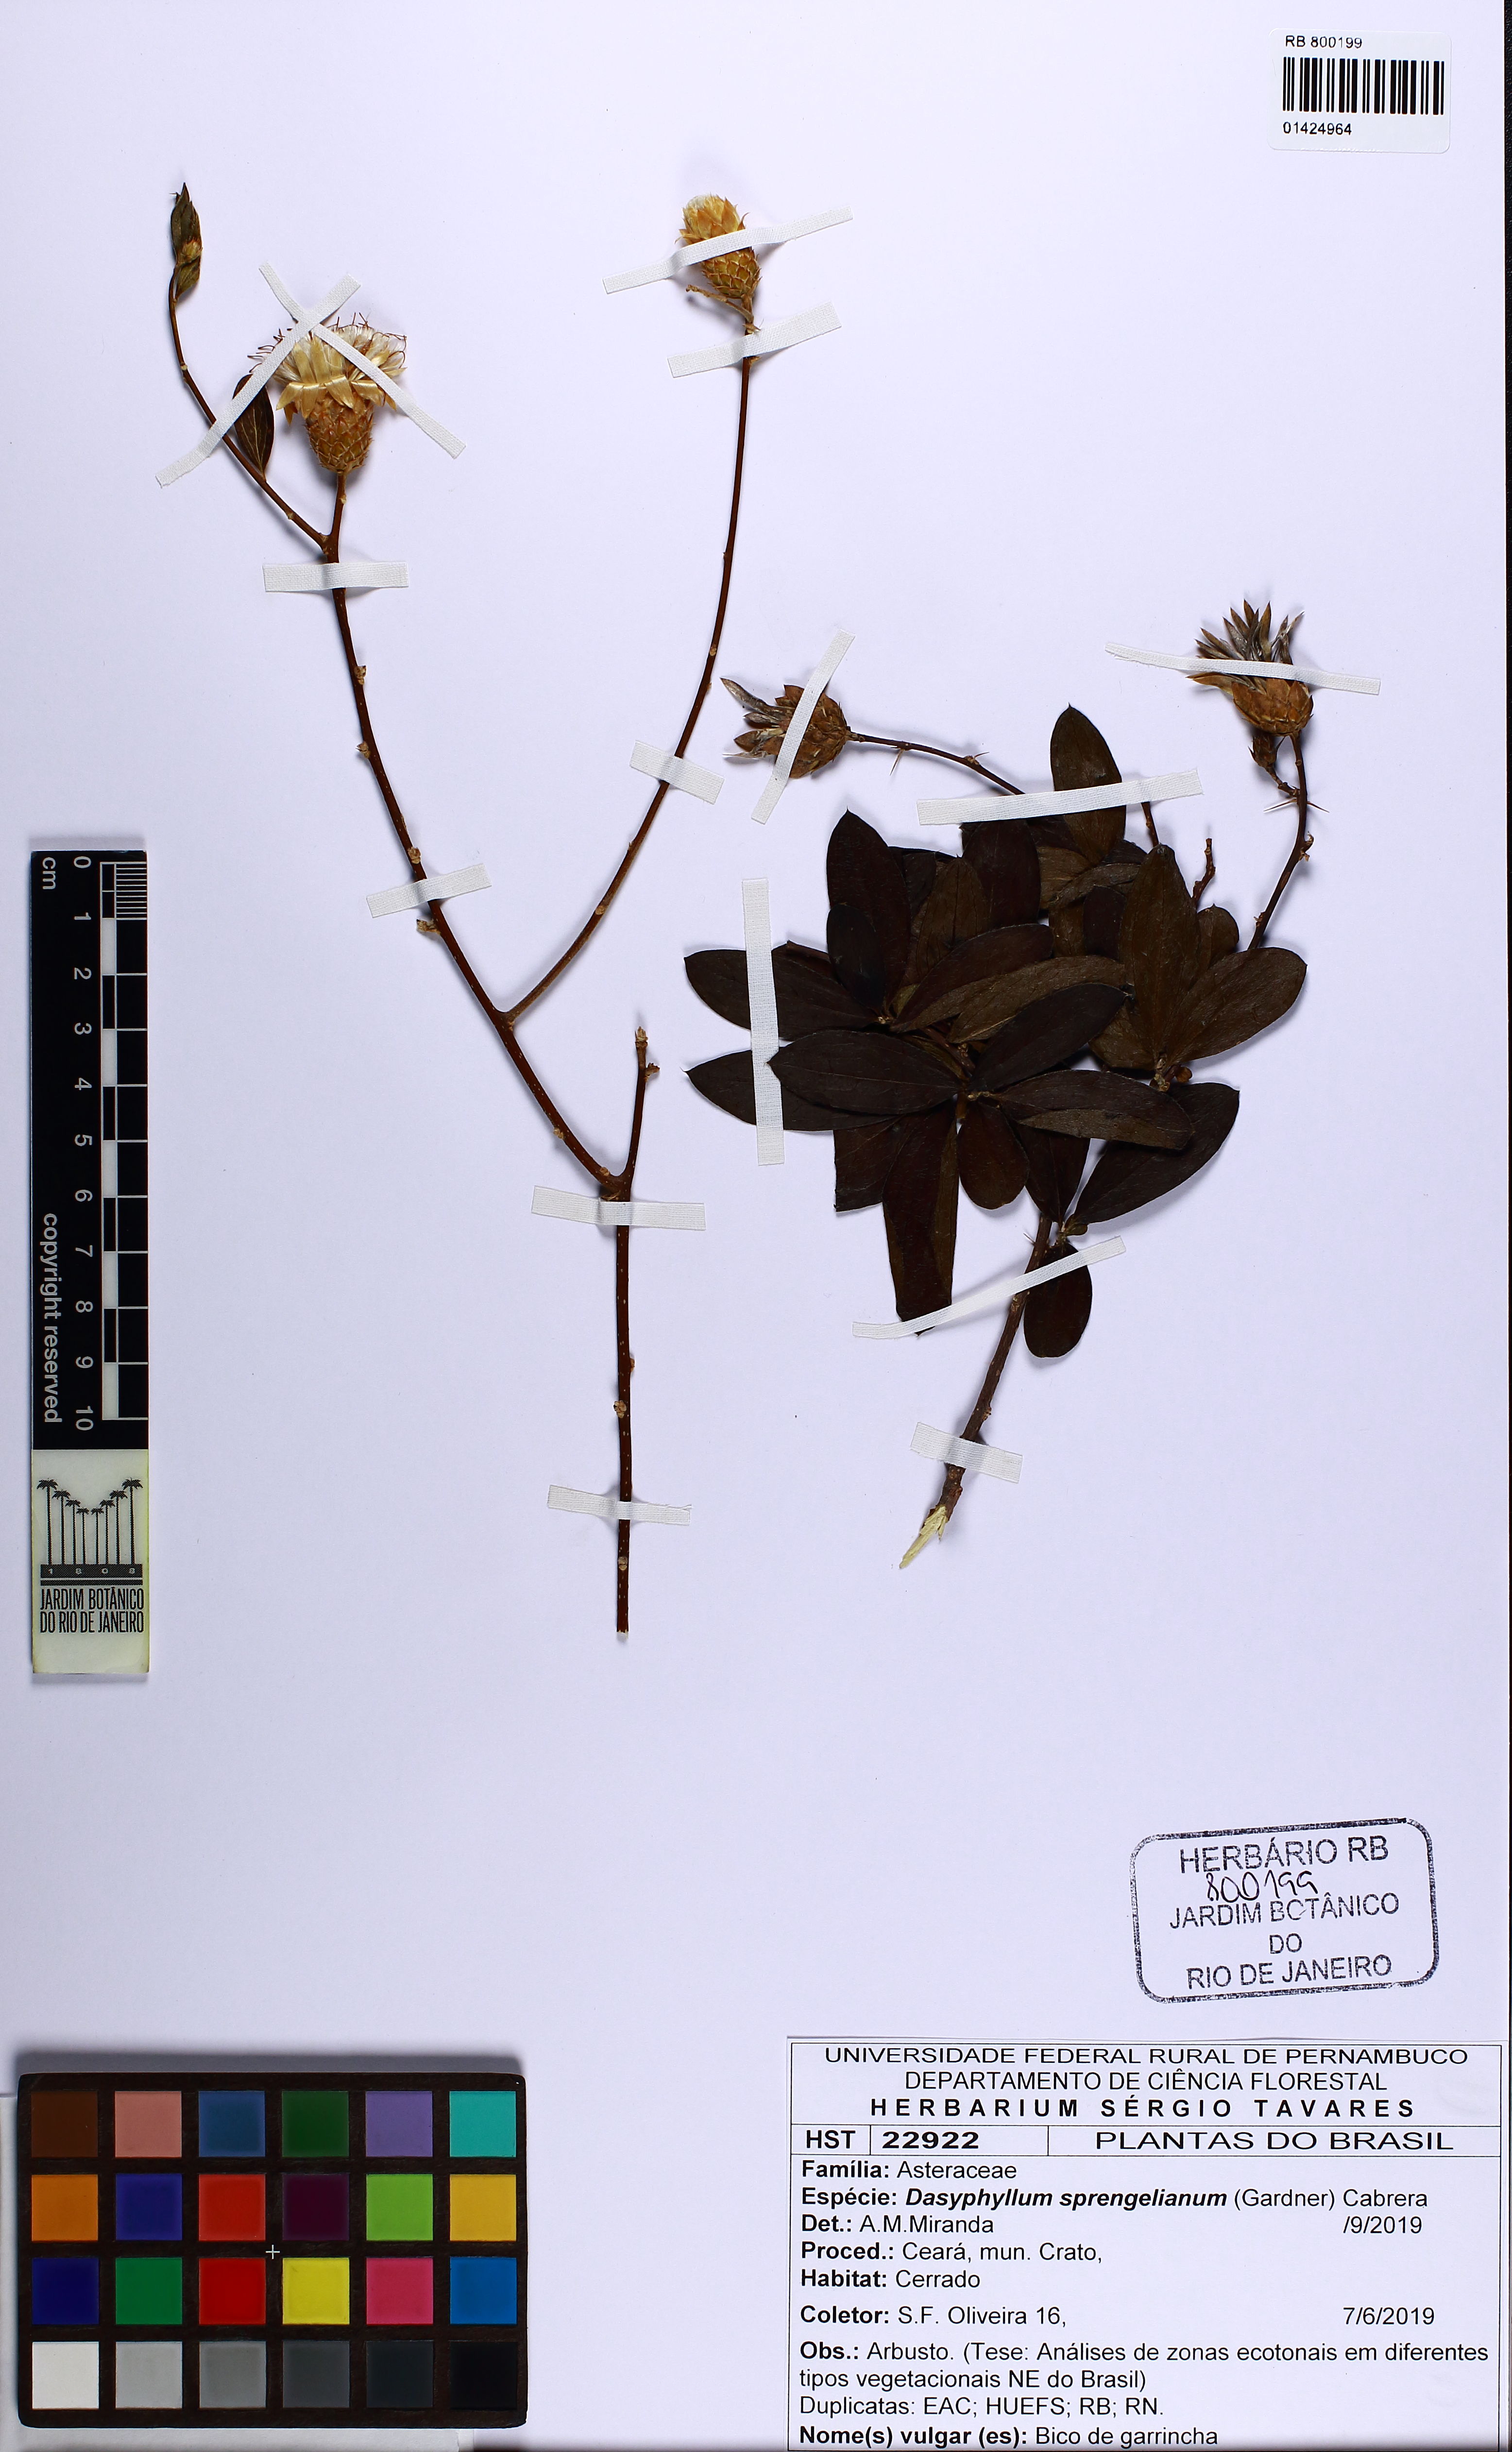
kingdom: Plantae
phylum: Tracheophyta
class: Magnoliopsida
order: Asterales
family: Asteraceae
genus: Dasyphyllum
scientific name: Dasyphyllum sprengelianum
